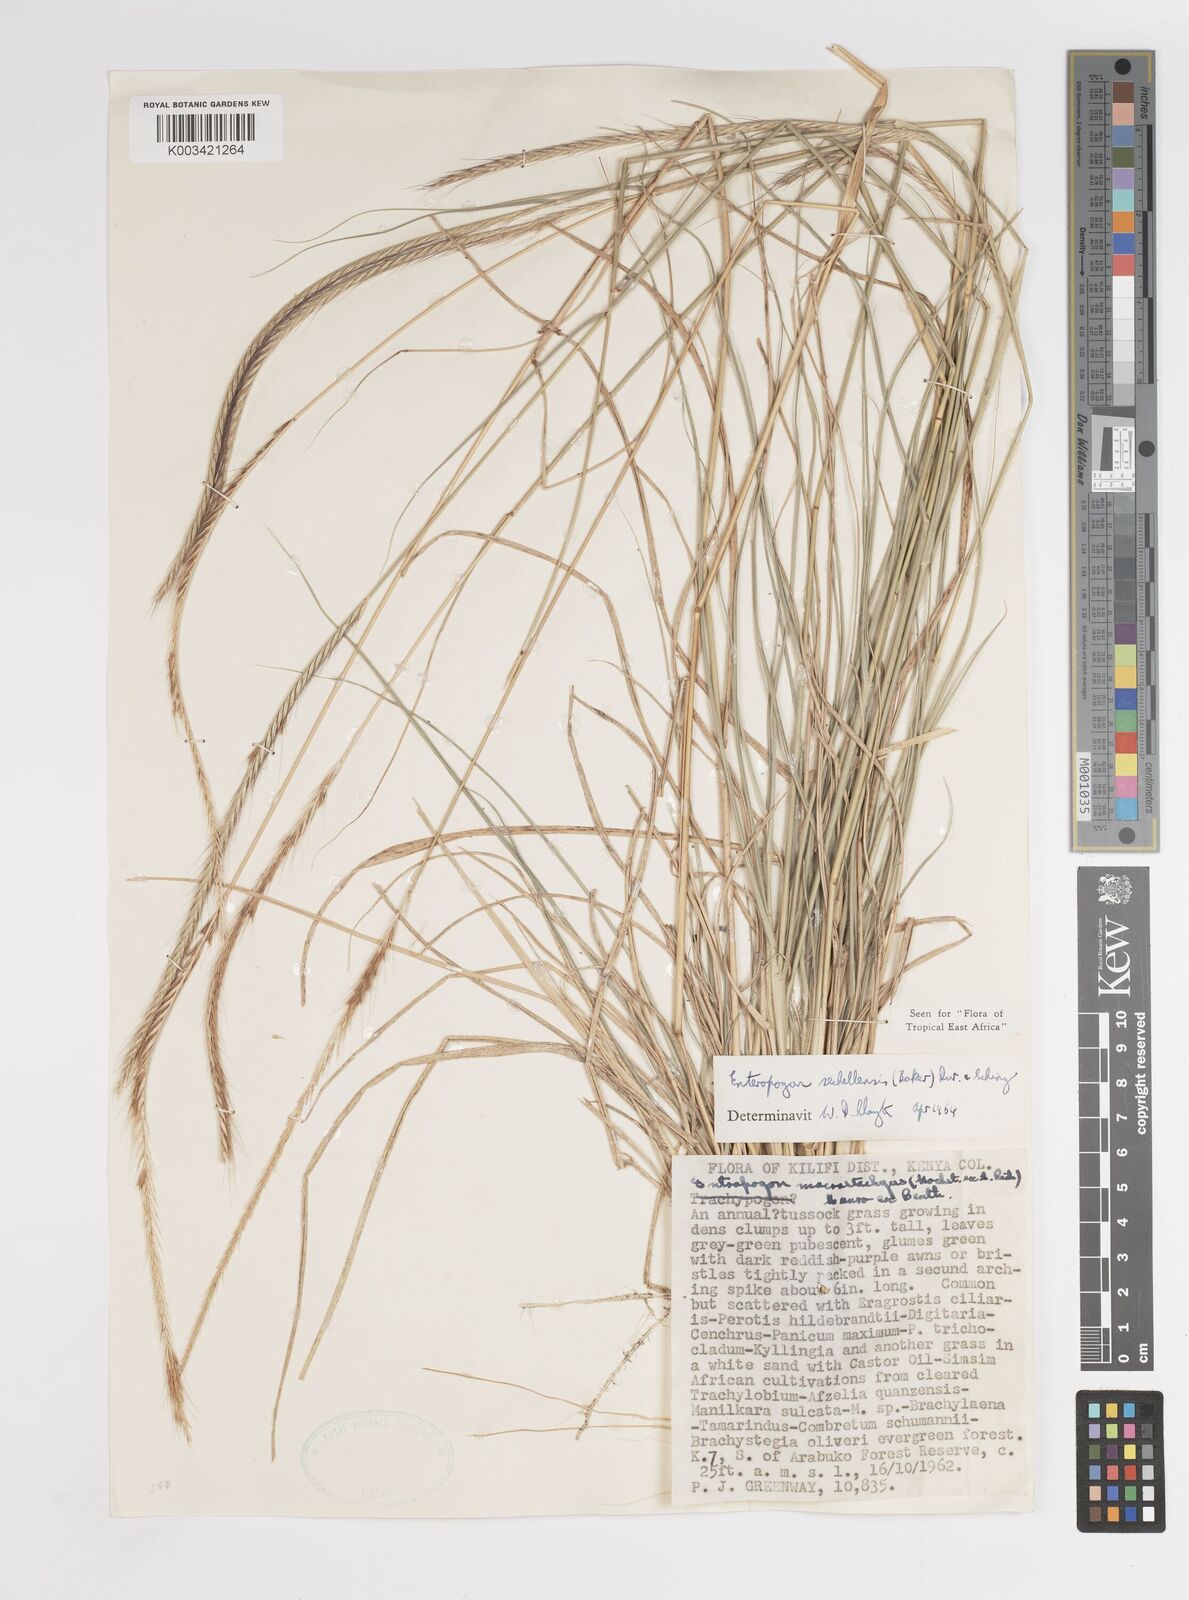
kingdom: Plantae
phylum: Tracheophyta
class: Liliopsida
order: Poales
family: Poaceae
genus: Enteropogon
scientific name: Enteropogon sechellensis
